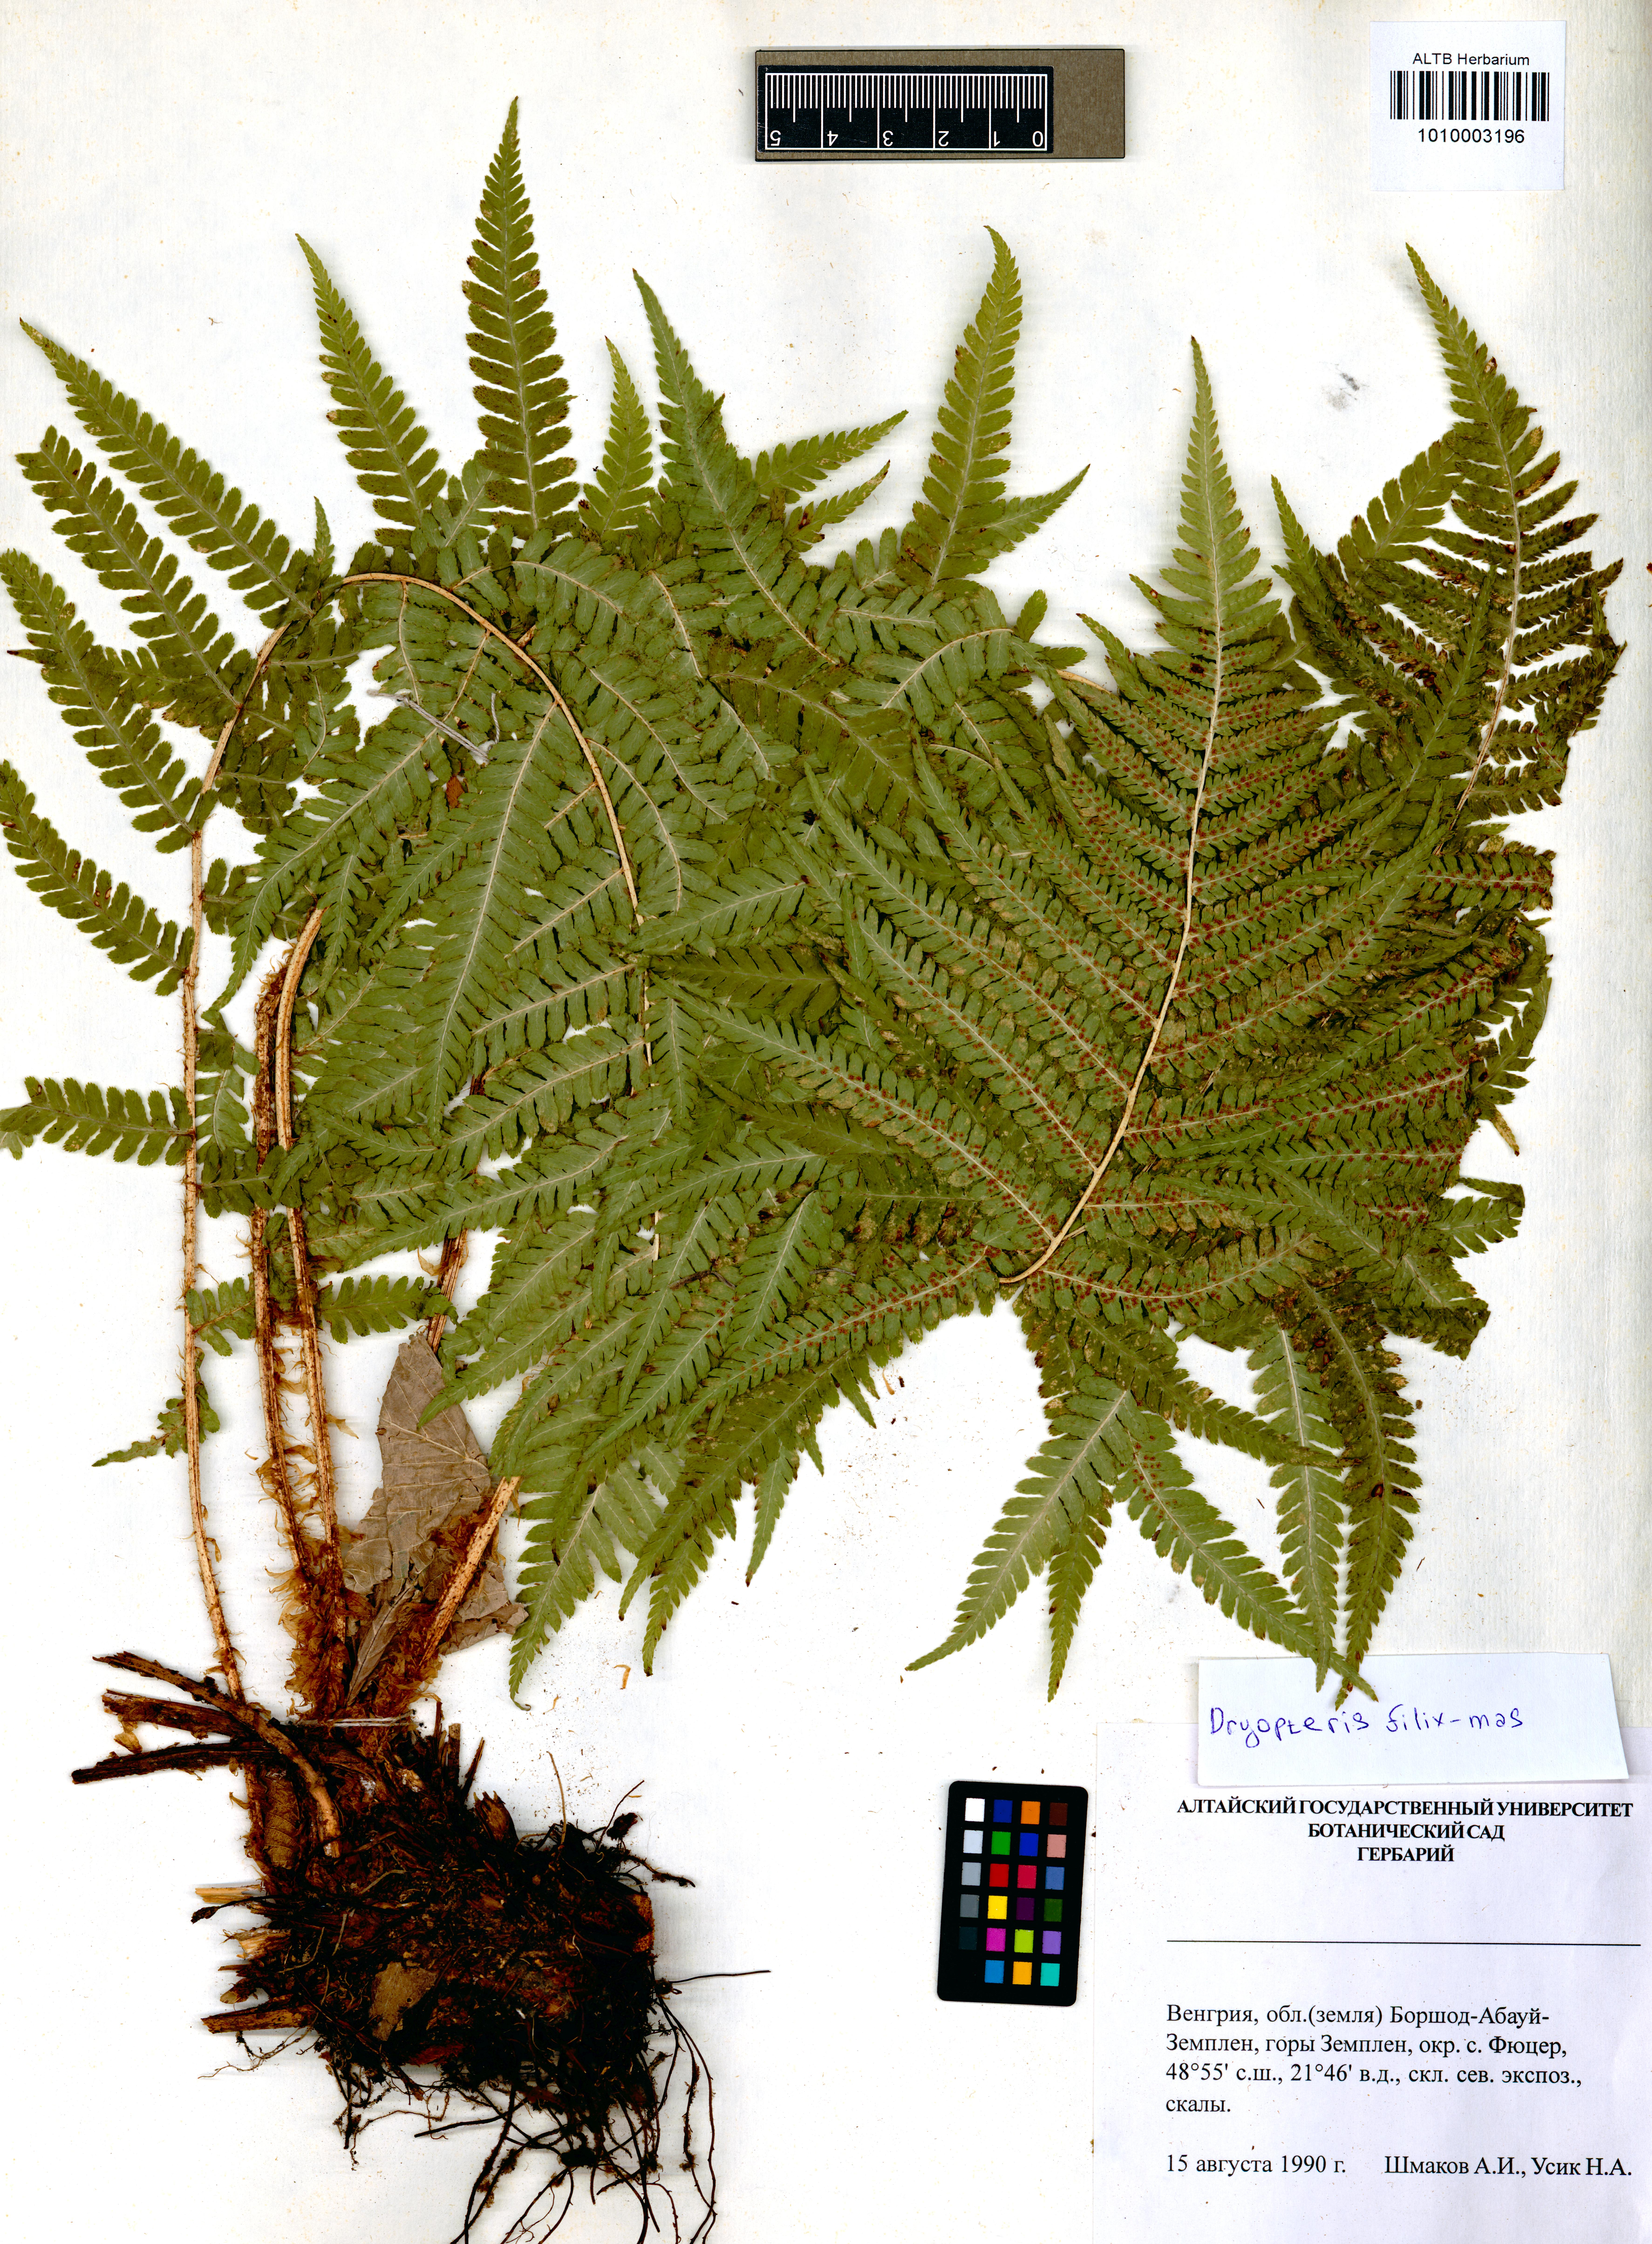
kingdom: Plantae
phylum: Tracheophyta
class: Polypodiopsida
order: Polypodiales
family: Dryopteridaceae
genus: Dryopteris
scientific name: Dryopteris filix-mas
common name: Male fern
